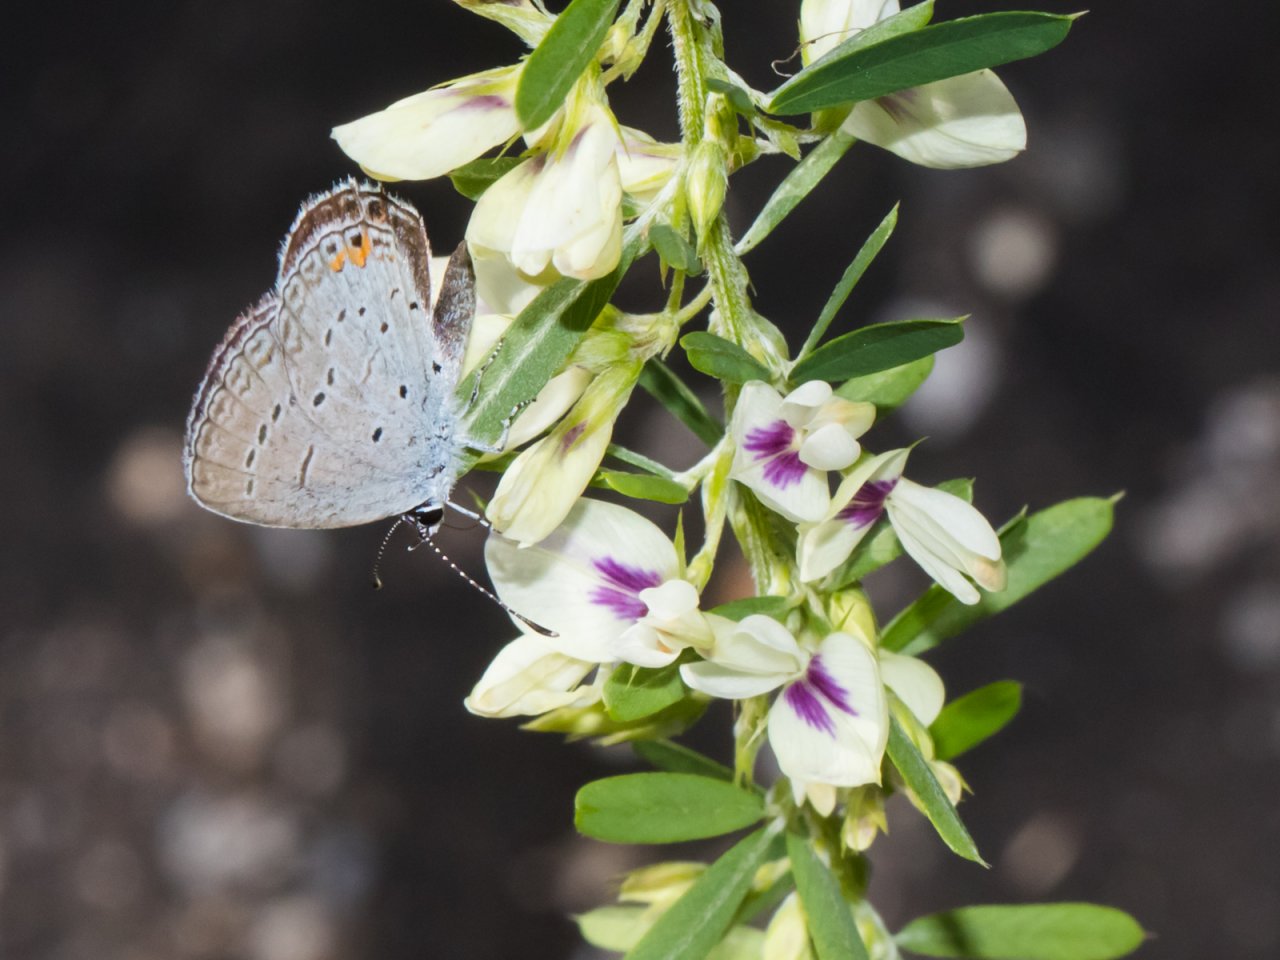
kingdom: Animalia
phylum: Arthropoda
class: Insecta
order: Lepidoptera
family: Lycaenidae
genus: Elkalyce
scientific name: Elkalyce comyntas
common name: Eastern Tailed-Blue
